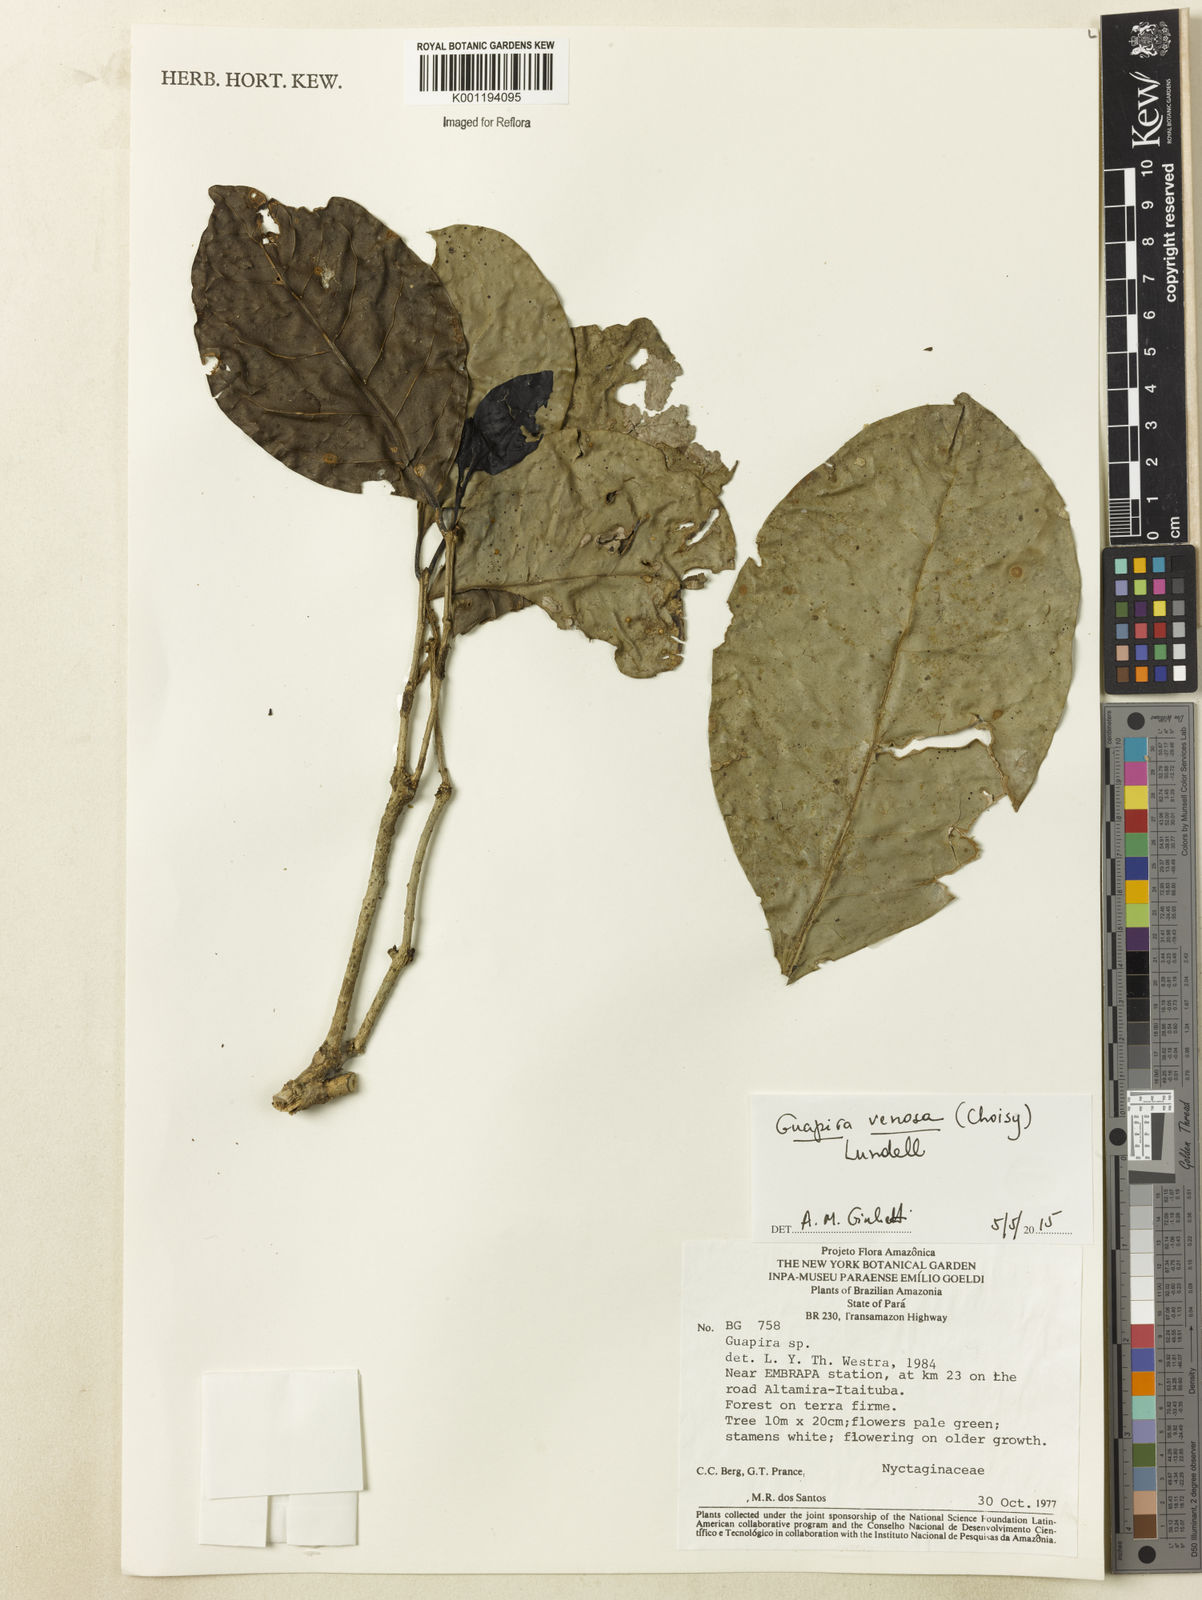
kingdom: Plantae
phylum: Tracheophyta
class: Magnoliopsida
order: Caryophyllales
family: Nyctaginaceae
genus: Guapira
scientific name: Guapira venosa
